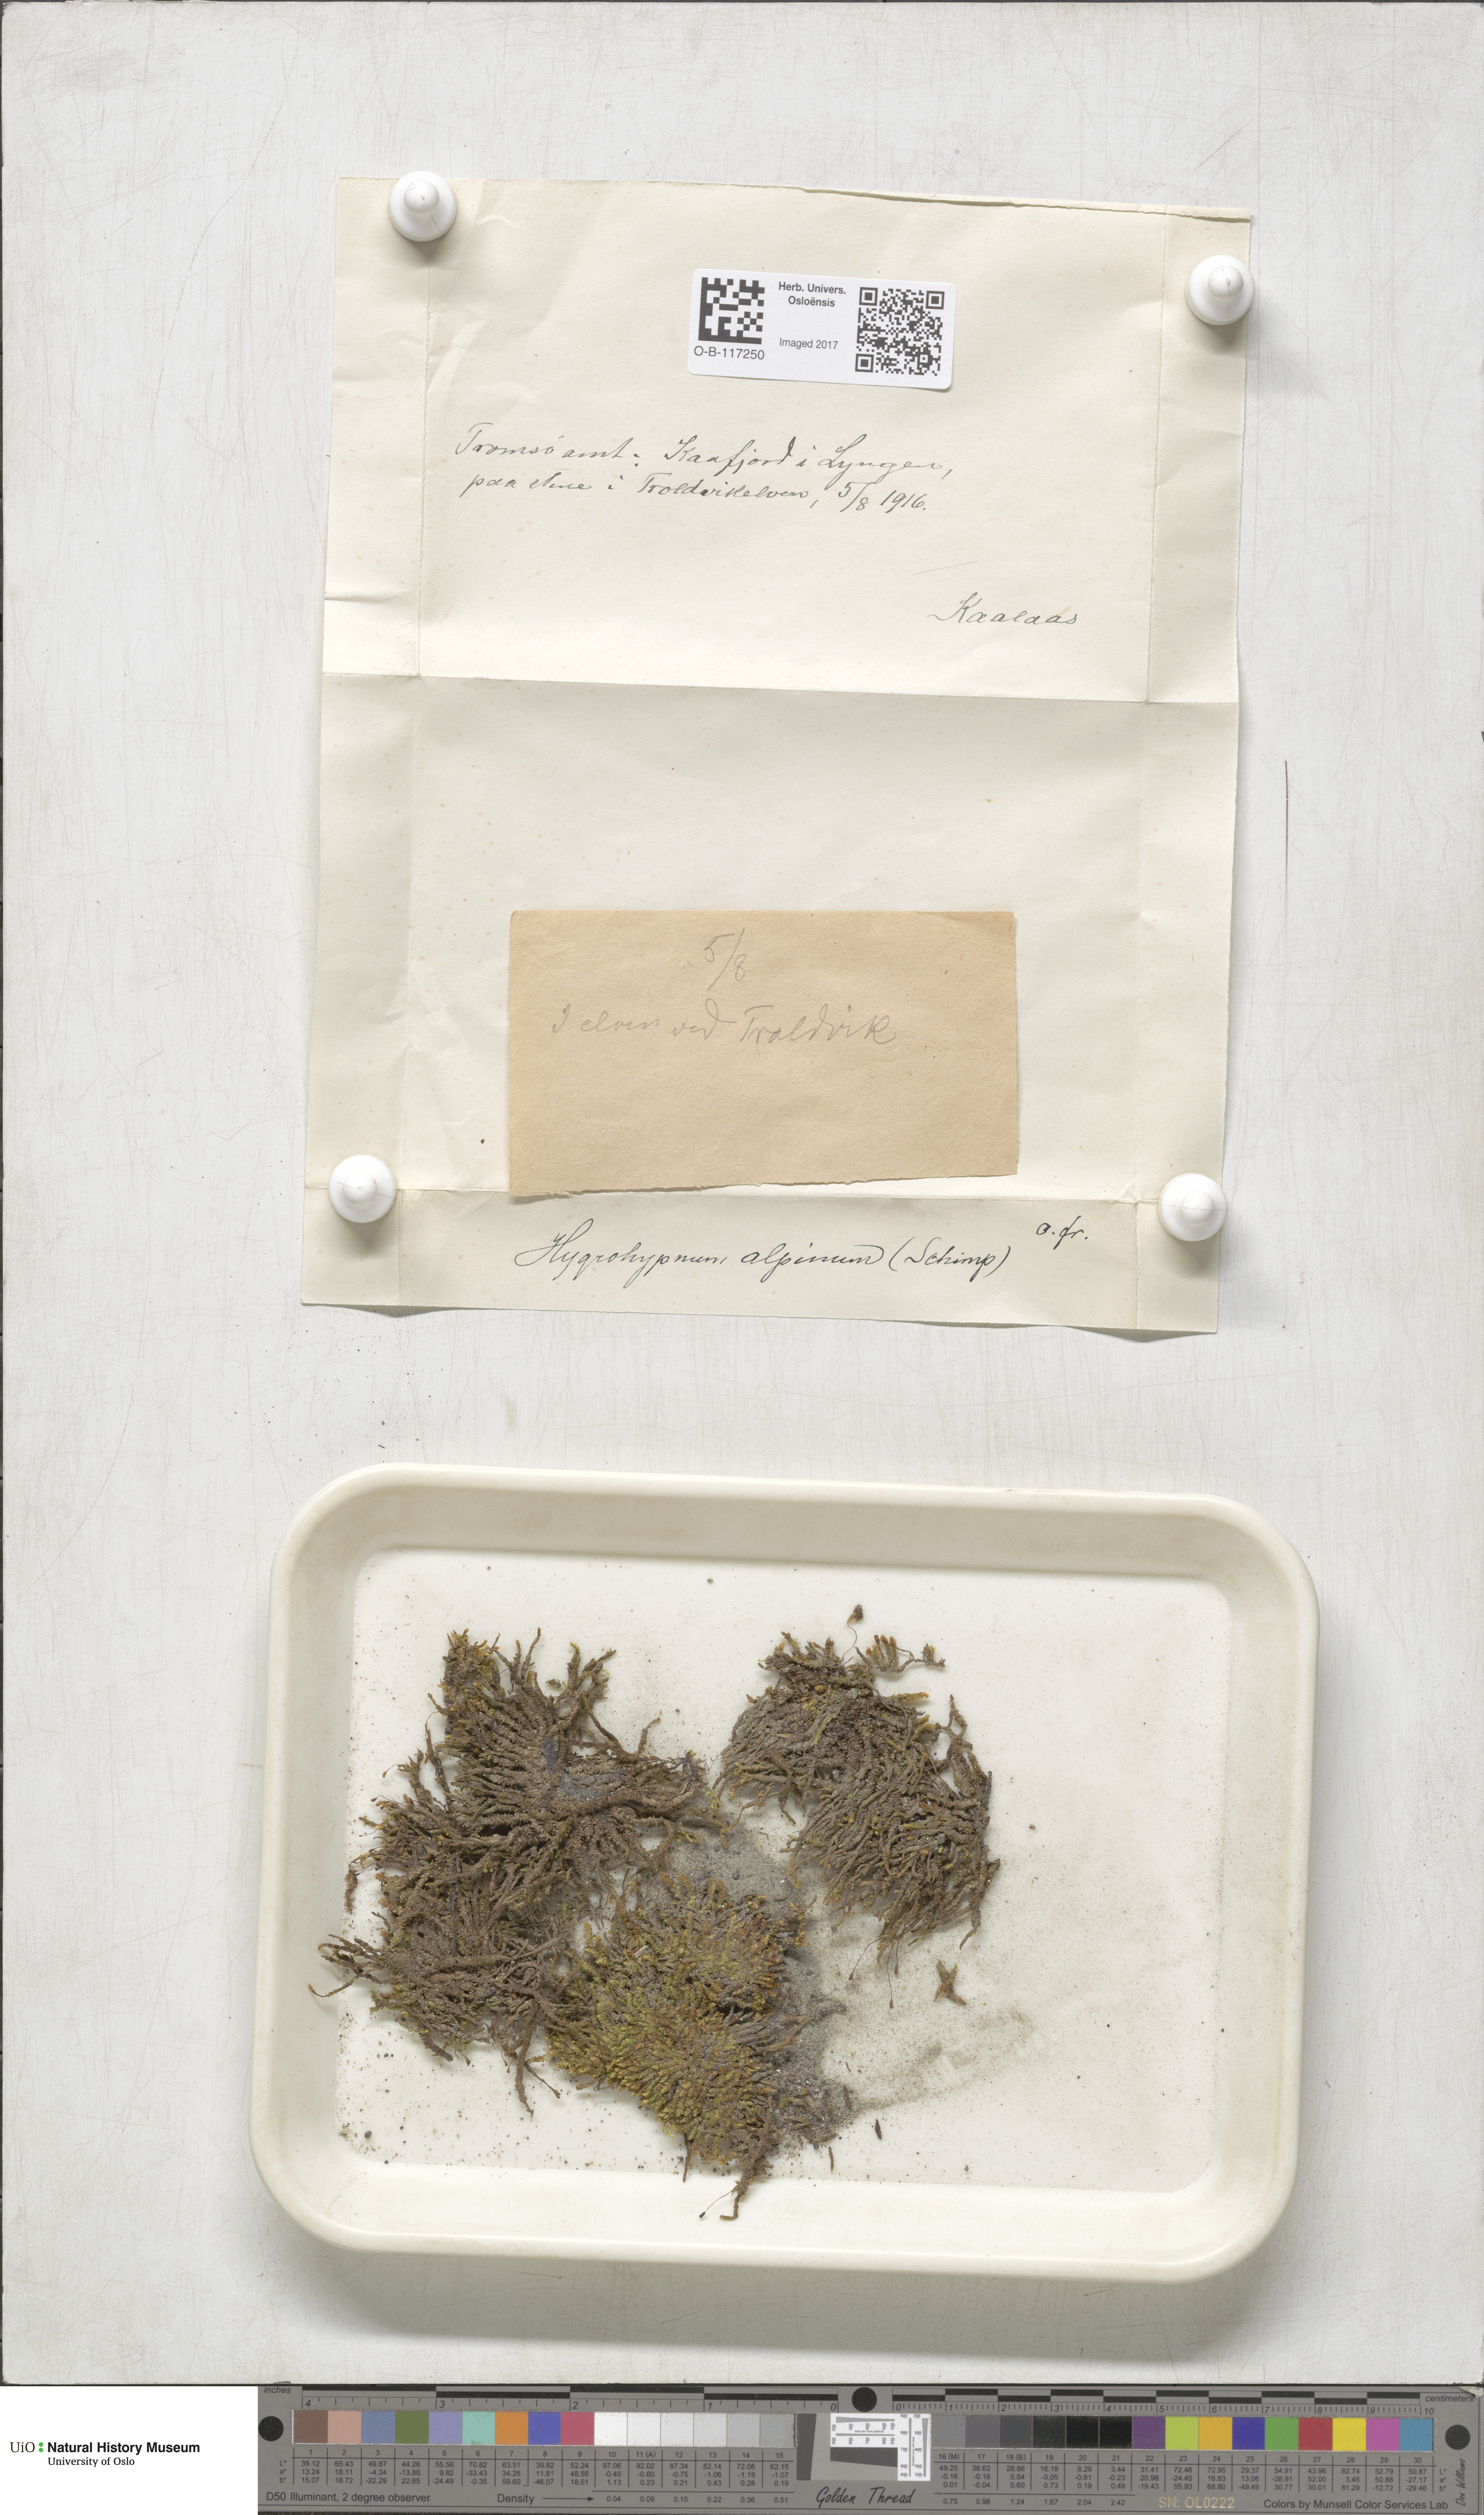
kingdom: Plantae
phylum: Bryophyta
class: Bryopsida
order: Hypnales
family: Amblystegiaceae
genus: Platyhypnum
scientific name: Platyhypnum alpinum
